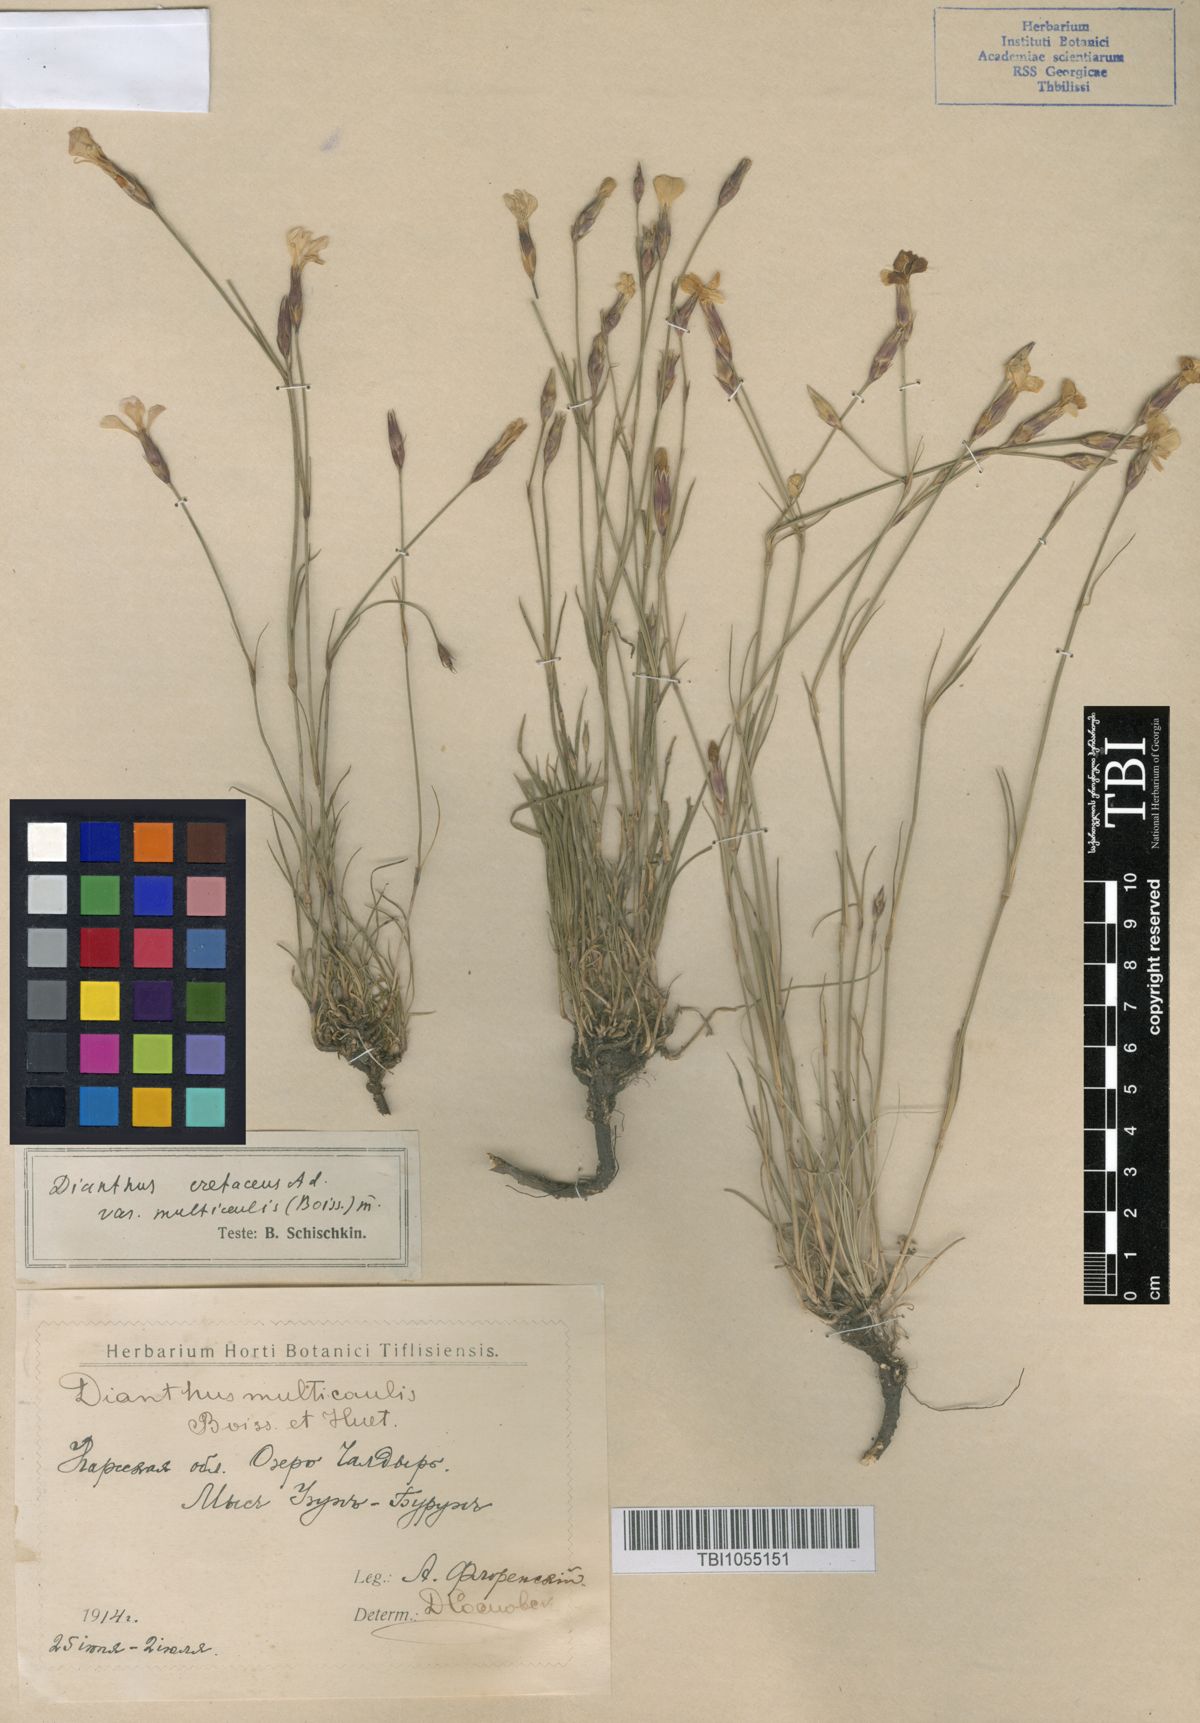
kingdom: Plantae
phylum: Tracheophyta
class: Magnoliopsida
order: Caryophyllales
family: Caryophyllaceae
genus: Dianthus
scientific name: Dianthus cretaceus
